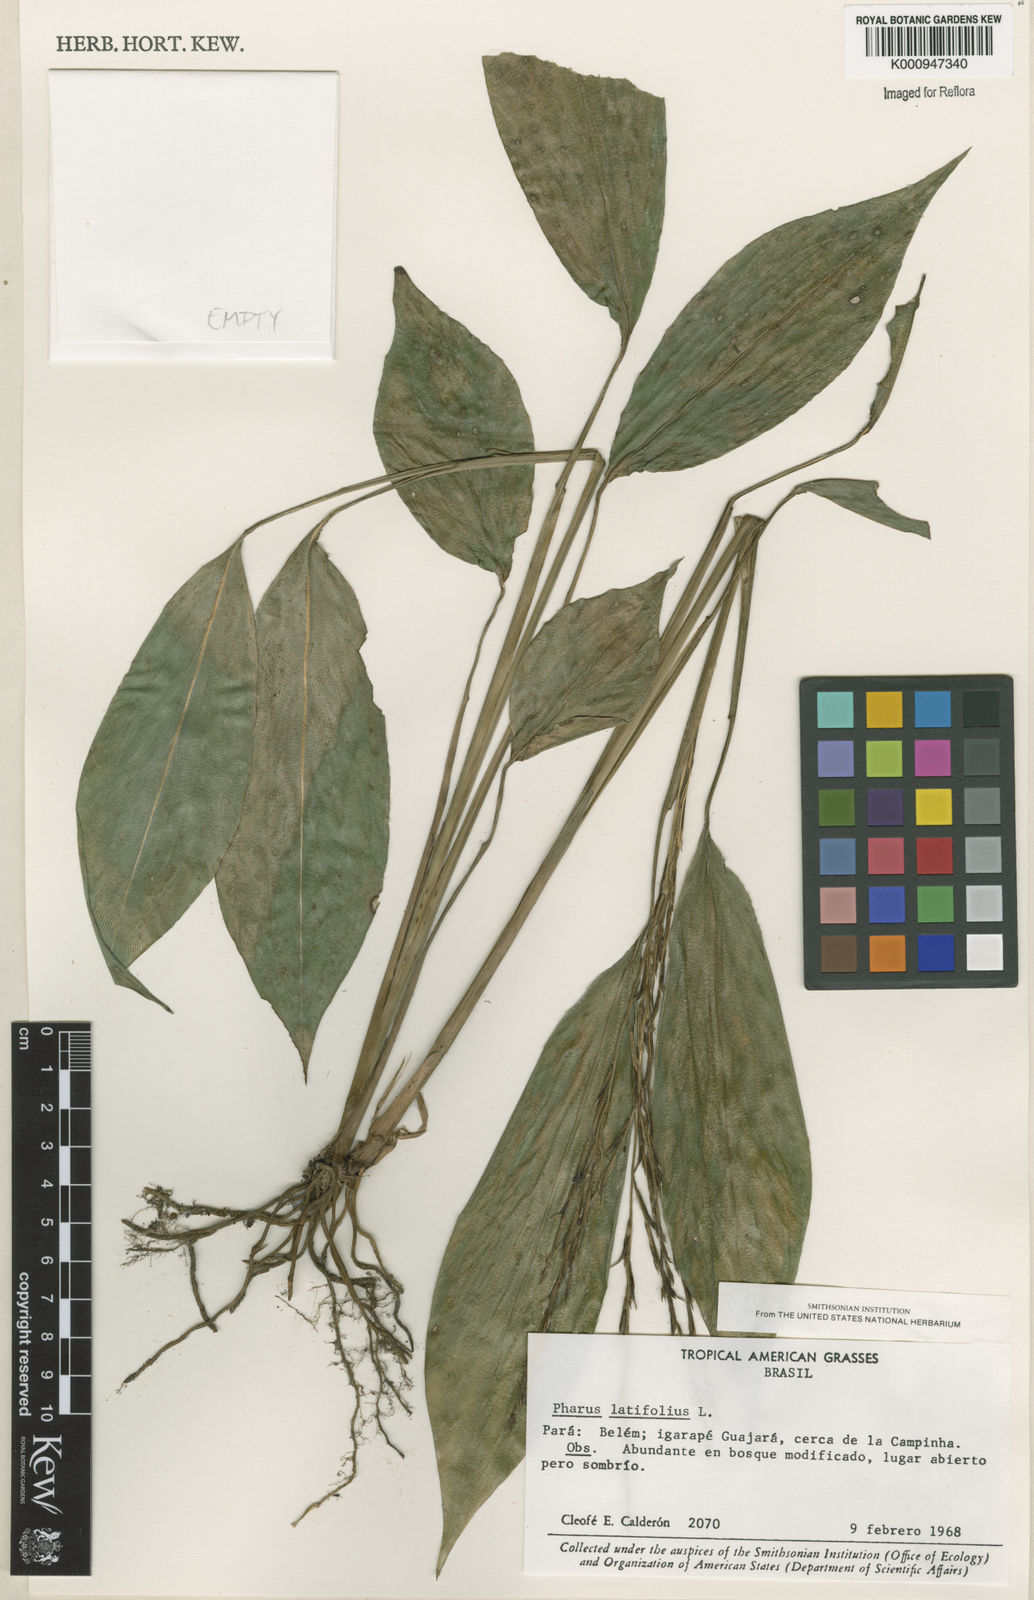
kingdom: Plantae
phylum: Tracheophyta
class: Liliopsida
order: Poales
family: Poaceae
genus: Pharus
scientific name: Pharus latifolius
